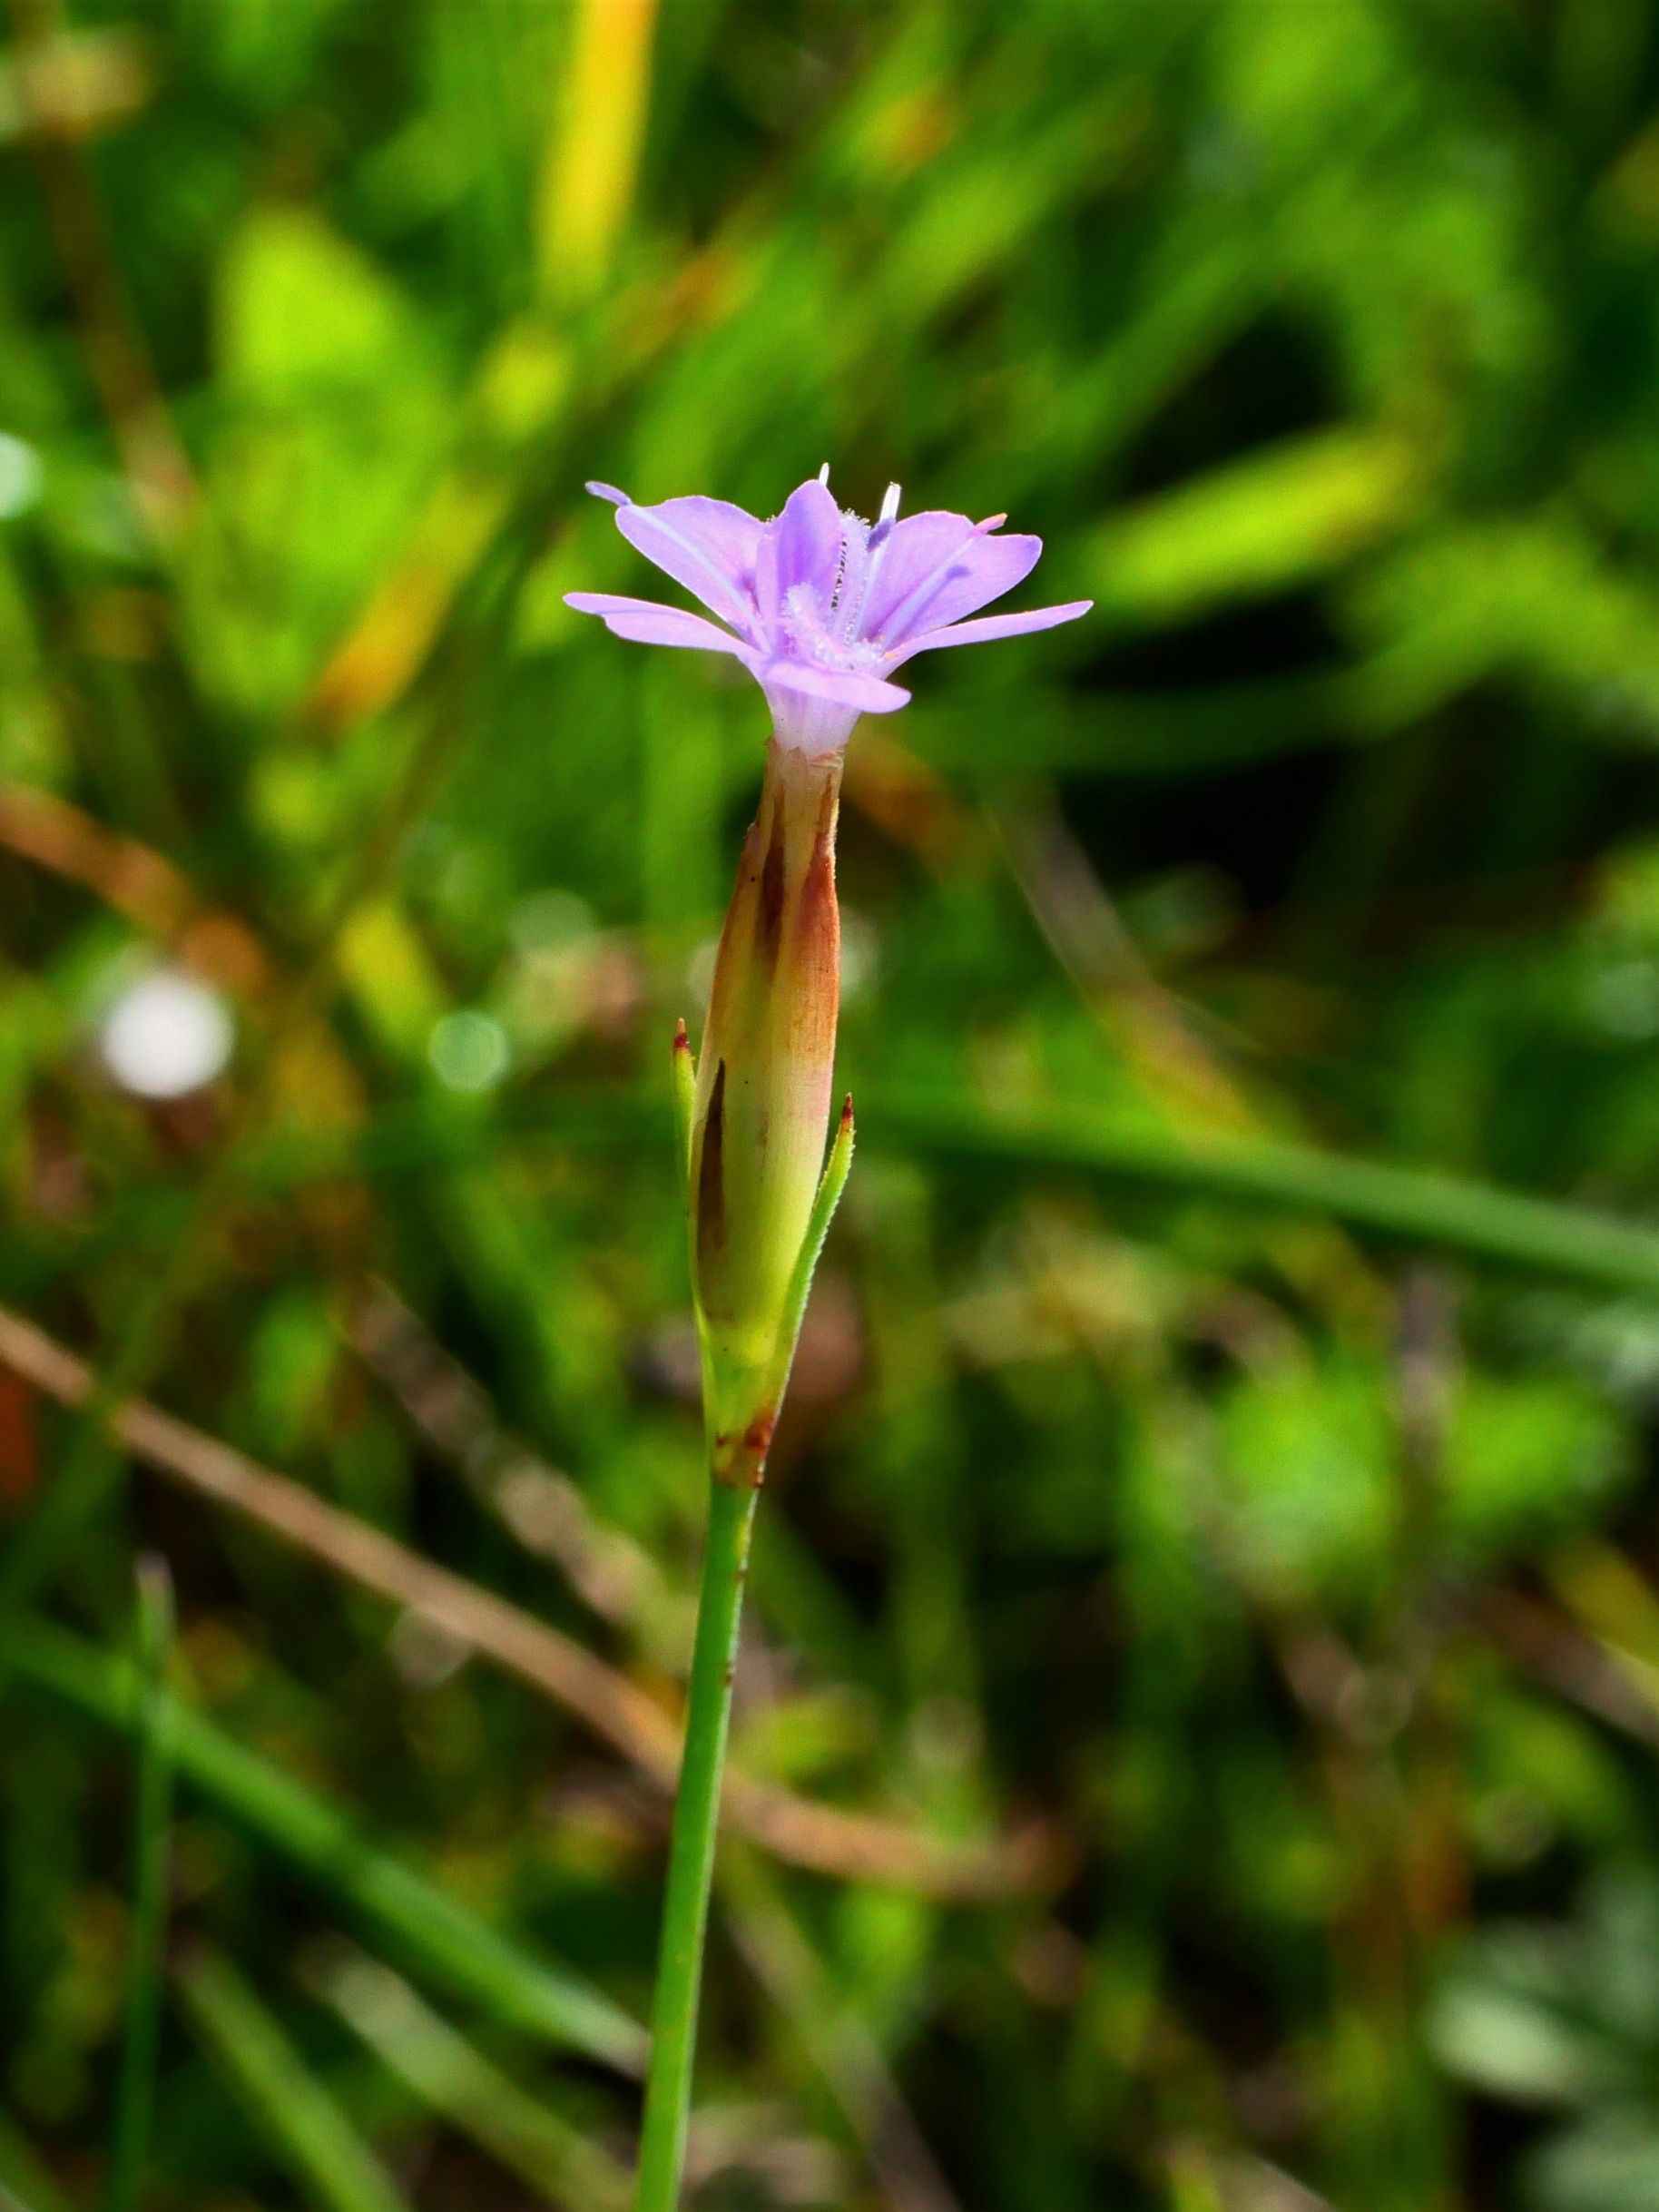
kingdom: Plantae
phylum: Tracheophyta
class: Magnoliopsida
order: Caryophyllales
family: Caryophyllaceae
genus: Petrorhagia
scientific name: Petrorhagia prolifera
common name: Knopnellike
